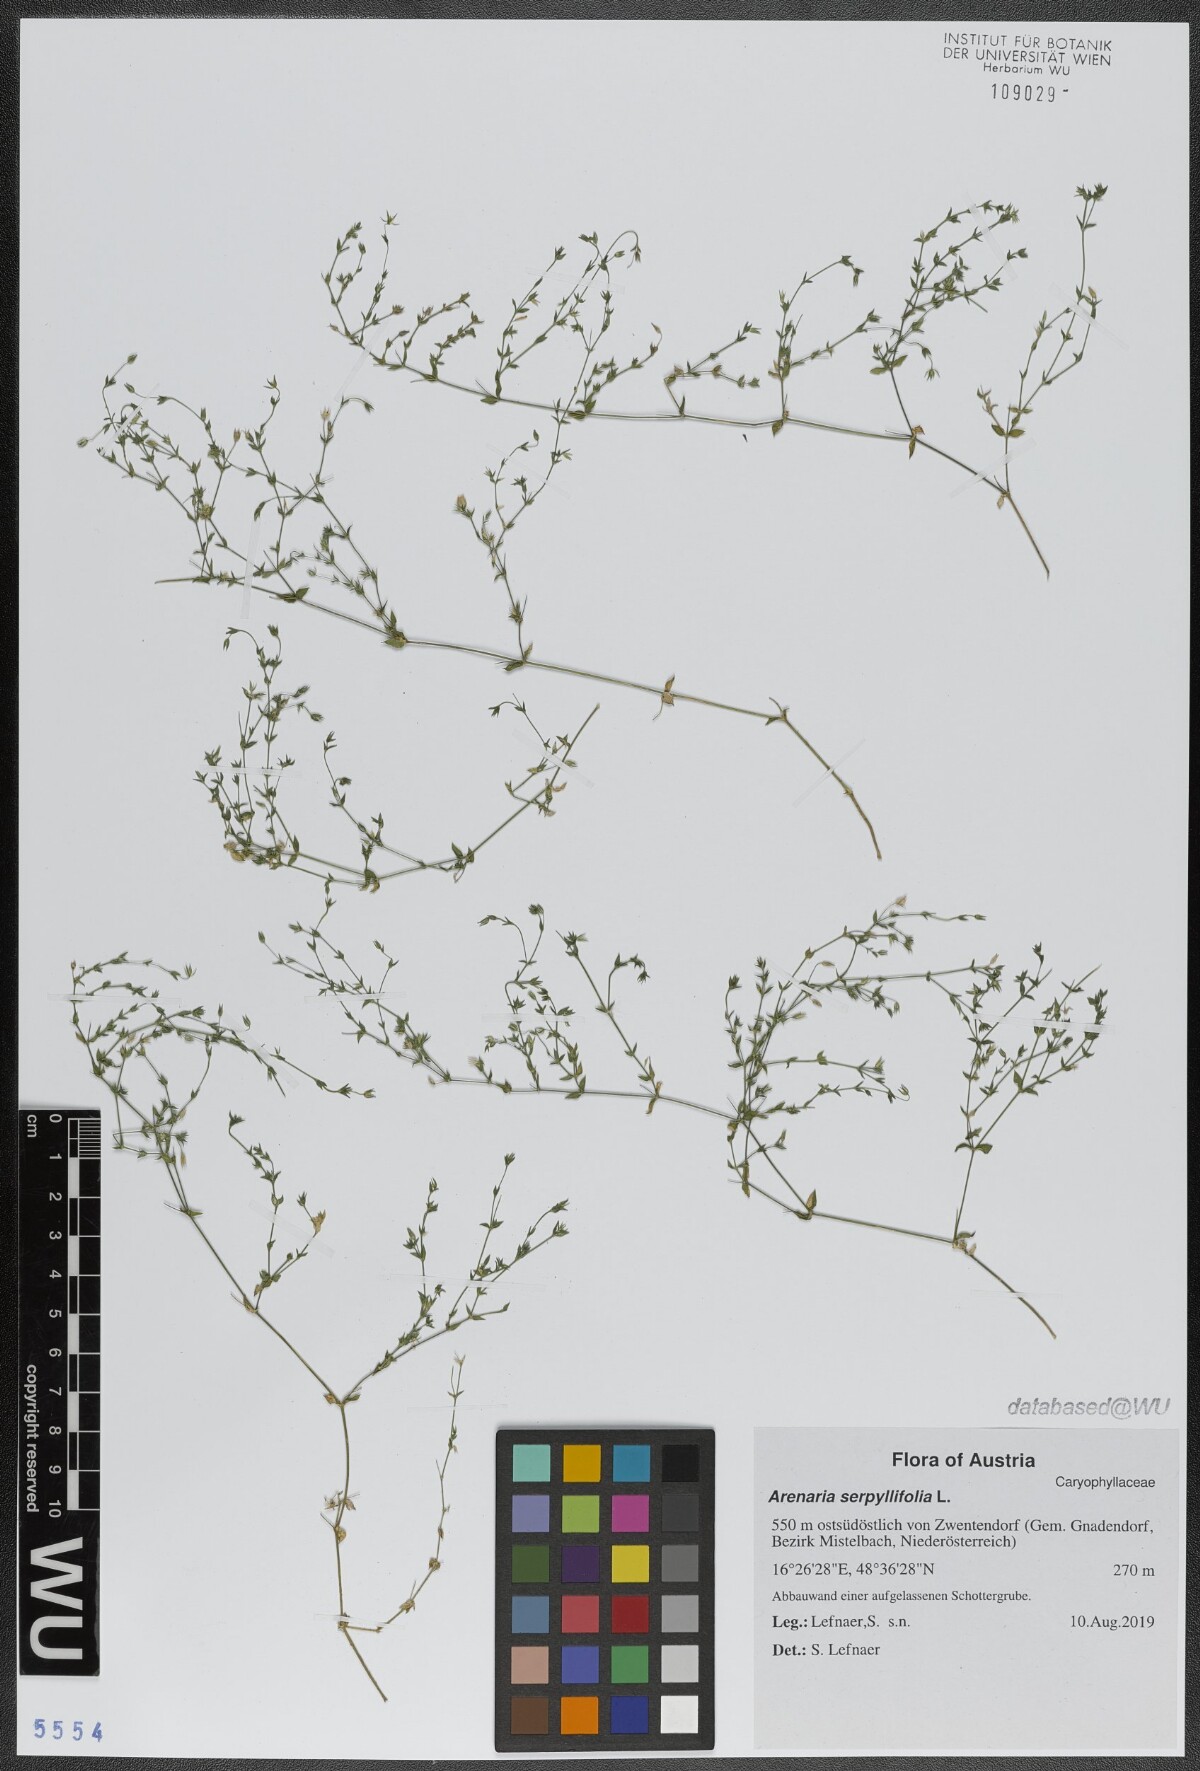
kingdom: Plantae
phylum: Tracheophyta
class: Magnoliopsida
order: Caryophyllales
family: Caryophyllaceae
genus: Arenaria
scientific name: Arenaria serpyllifolia
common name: Thyme-leaved sandwort
